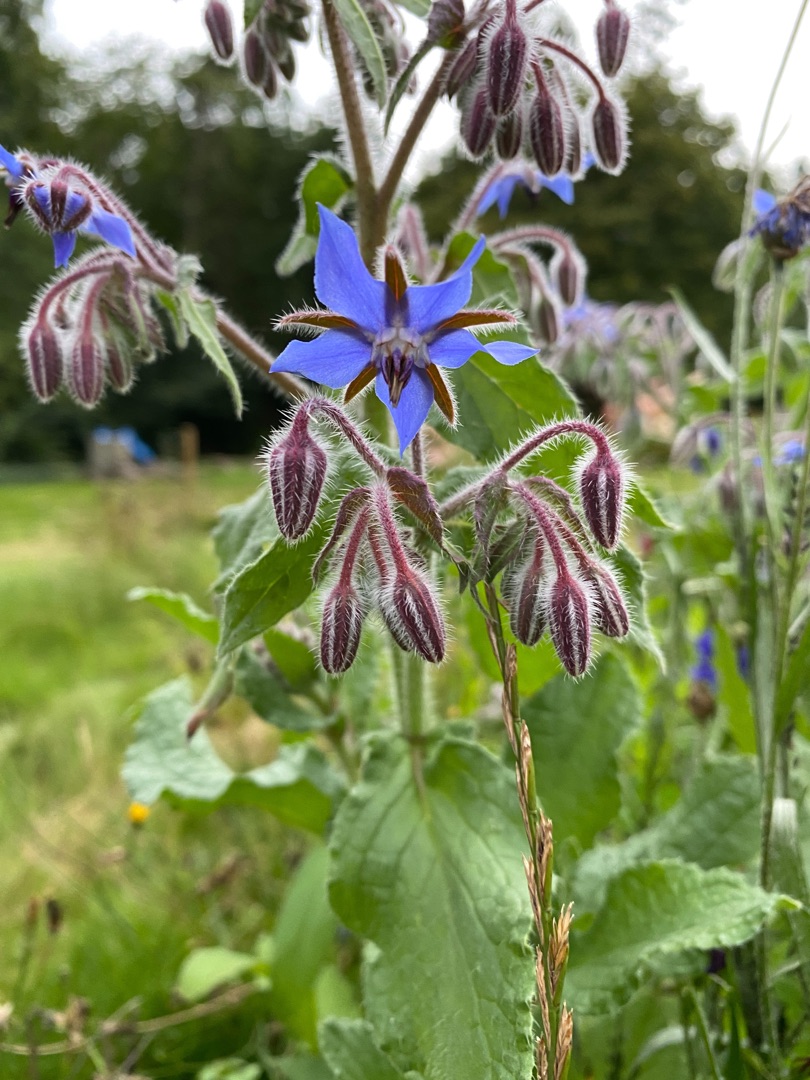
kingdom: Plantae
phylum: Tracheophyta
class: Magnoliopsida
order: Boraginales
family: Boraginaceae
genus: Borago
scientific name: Borago officinalis
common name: Hjulkrone
